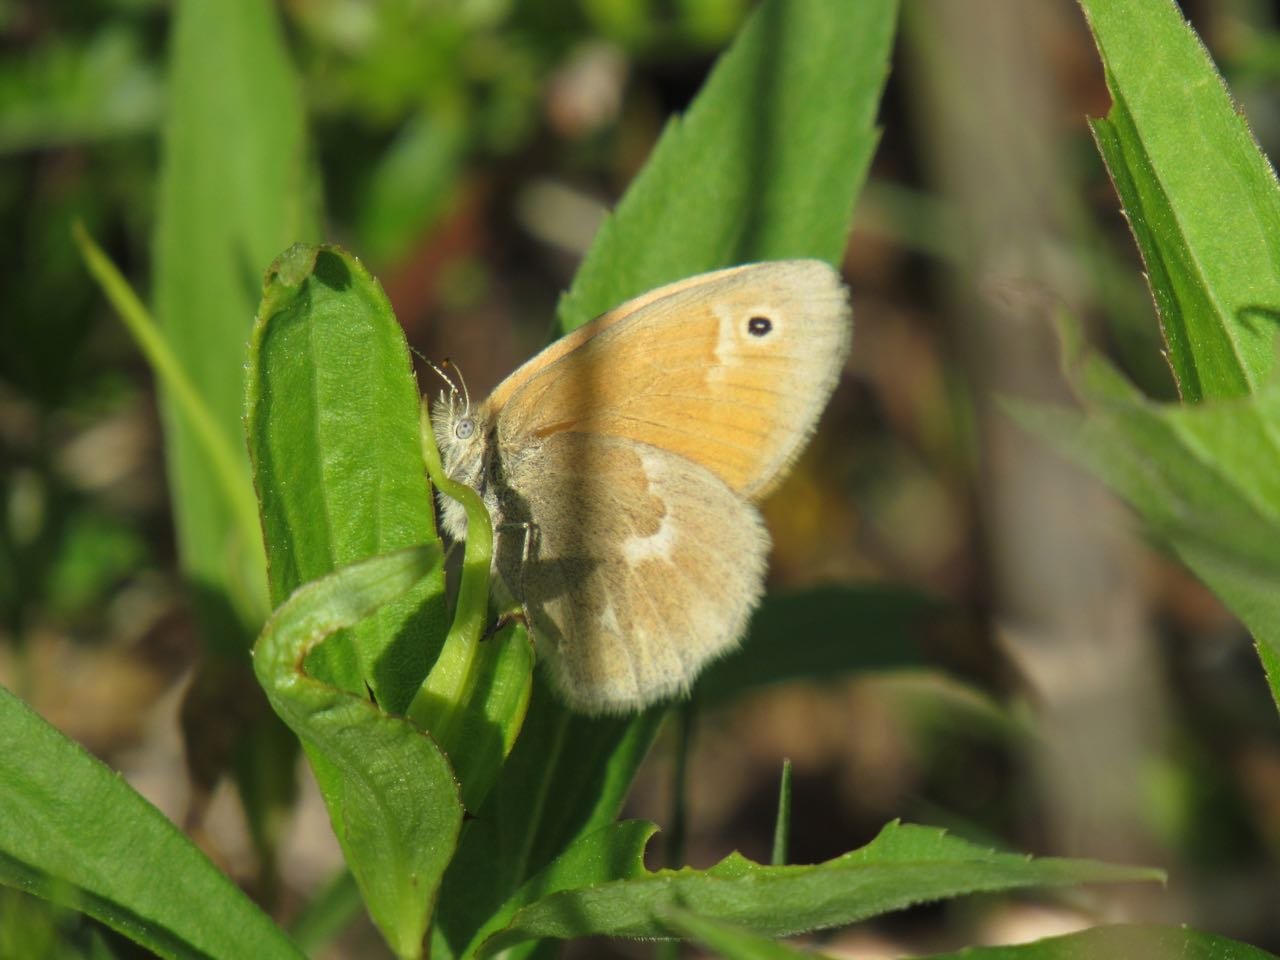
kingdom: Animalia
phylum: Arthropoda
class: Insecta
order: Lepidoptera
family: Nymphalidae
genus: Coenonympha
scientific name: Coenonympha tullia
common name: Large Heath
